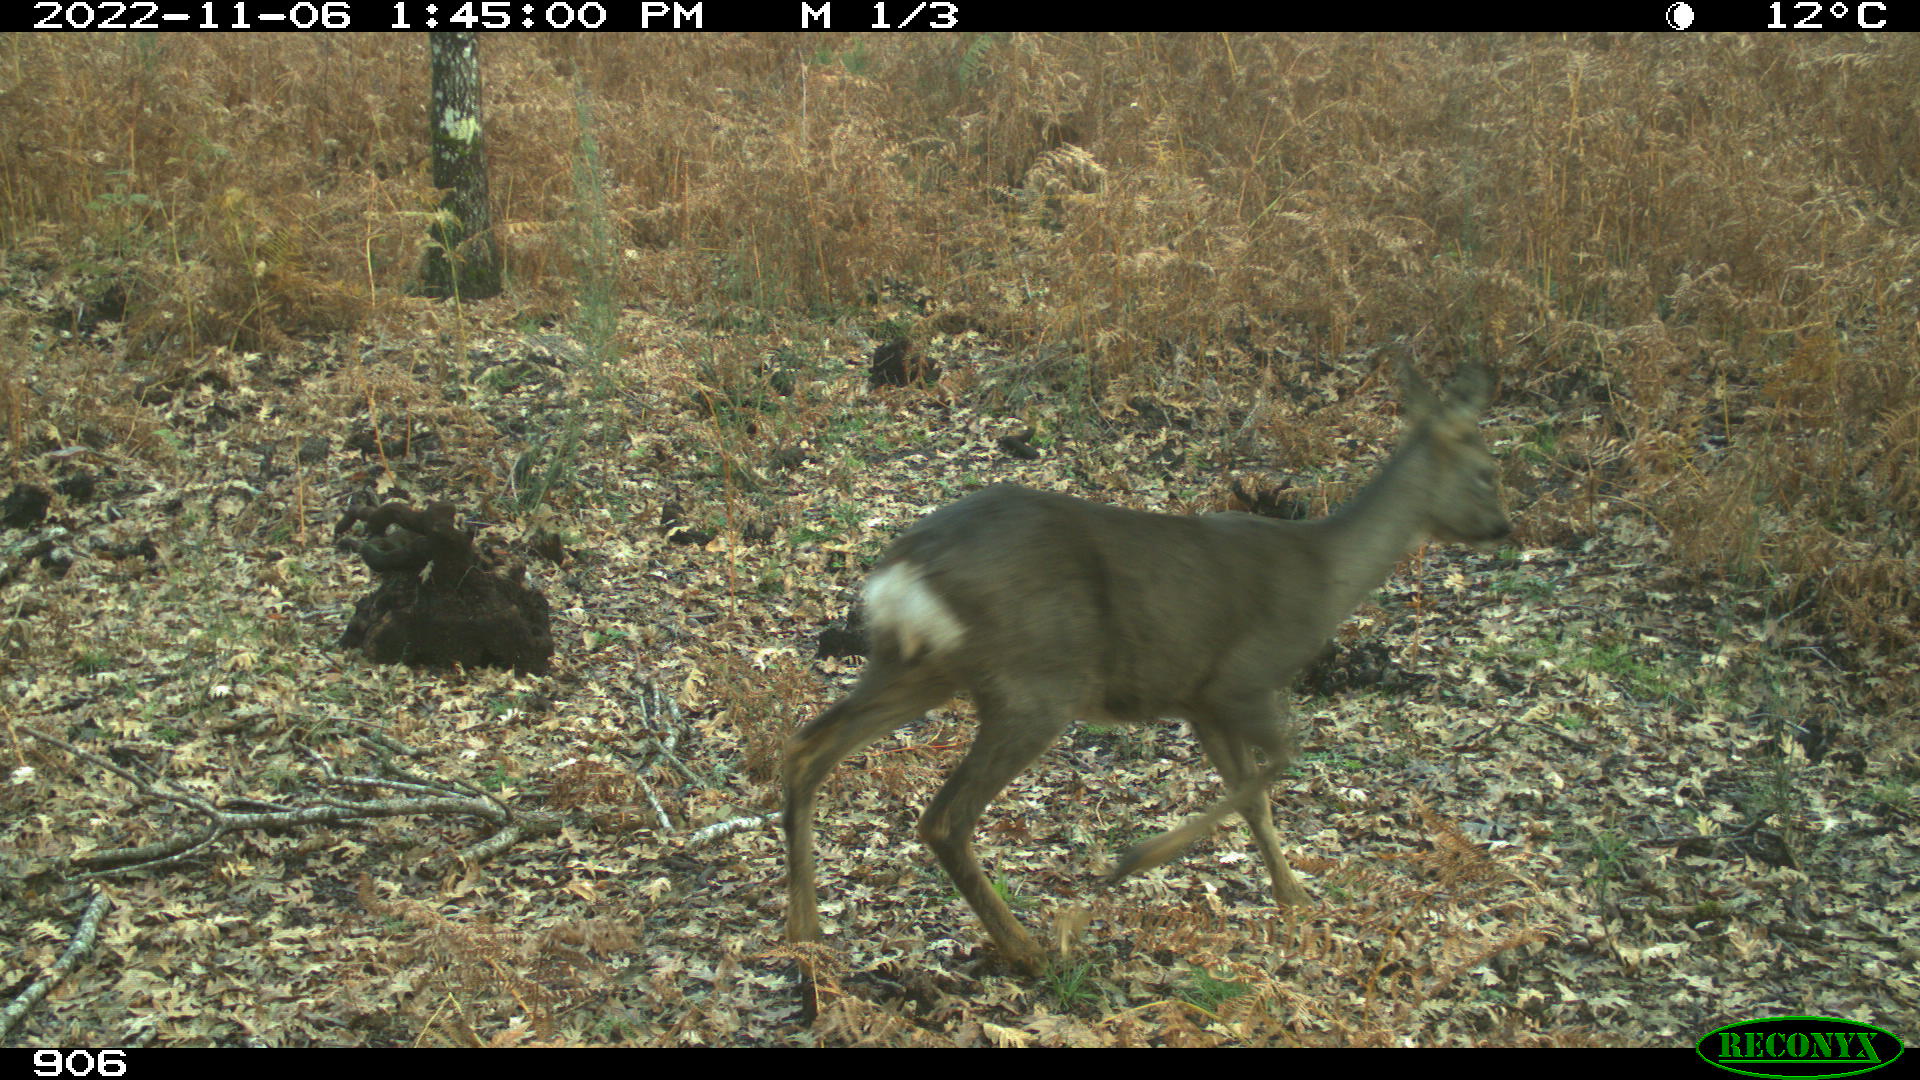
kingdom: Animalia
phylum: Chordata
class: Mammalia
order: Artiodactyla
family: Cervidae
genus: Capreolus
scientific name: Capreolus capreolus
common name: Western roe deer
